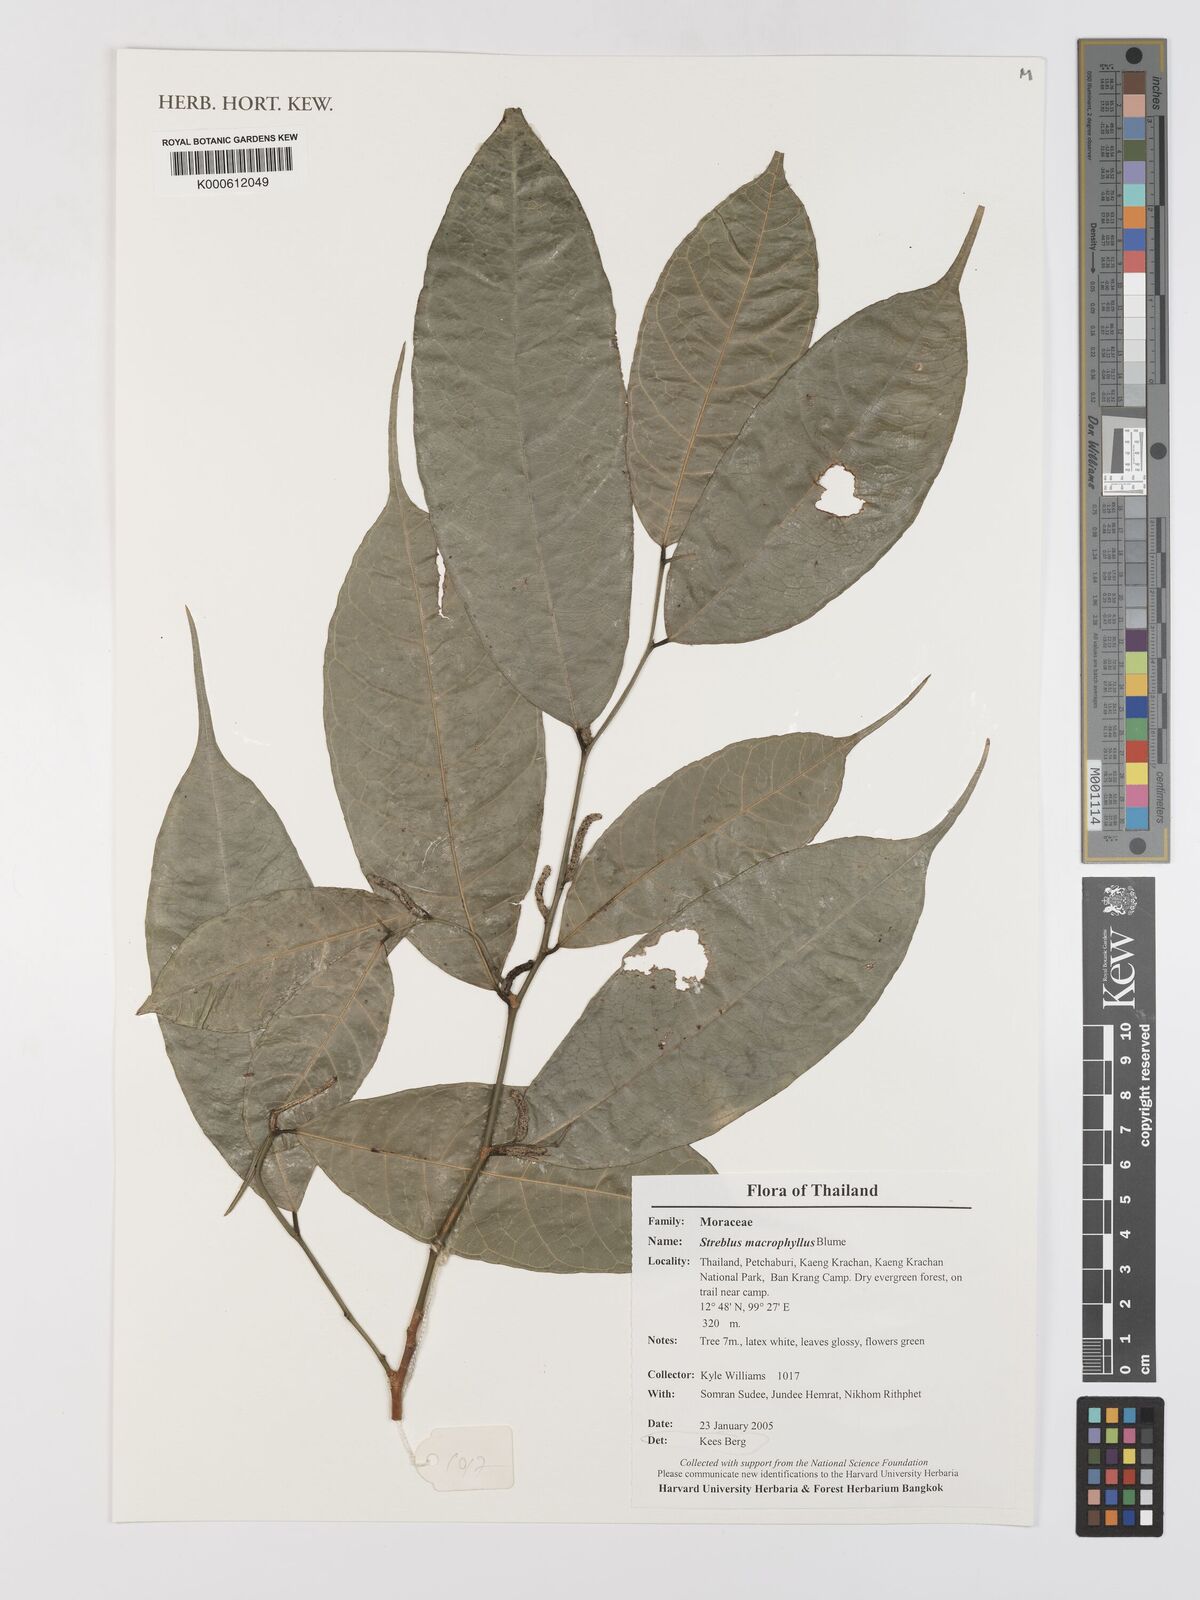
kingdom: Plantae
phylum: Tracheophyta
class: Magnoliopsida
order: Rosales
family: Moraceae
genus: Taxotrophis
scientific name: Taxotrophis macrophylla
